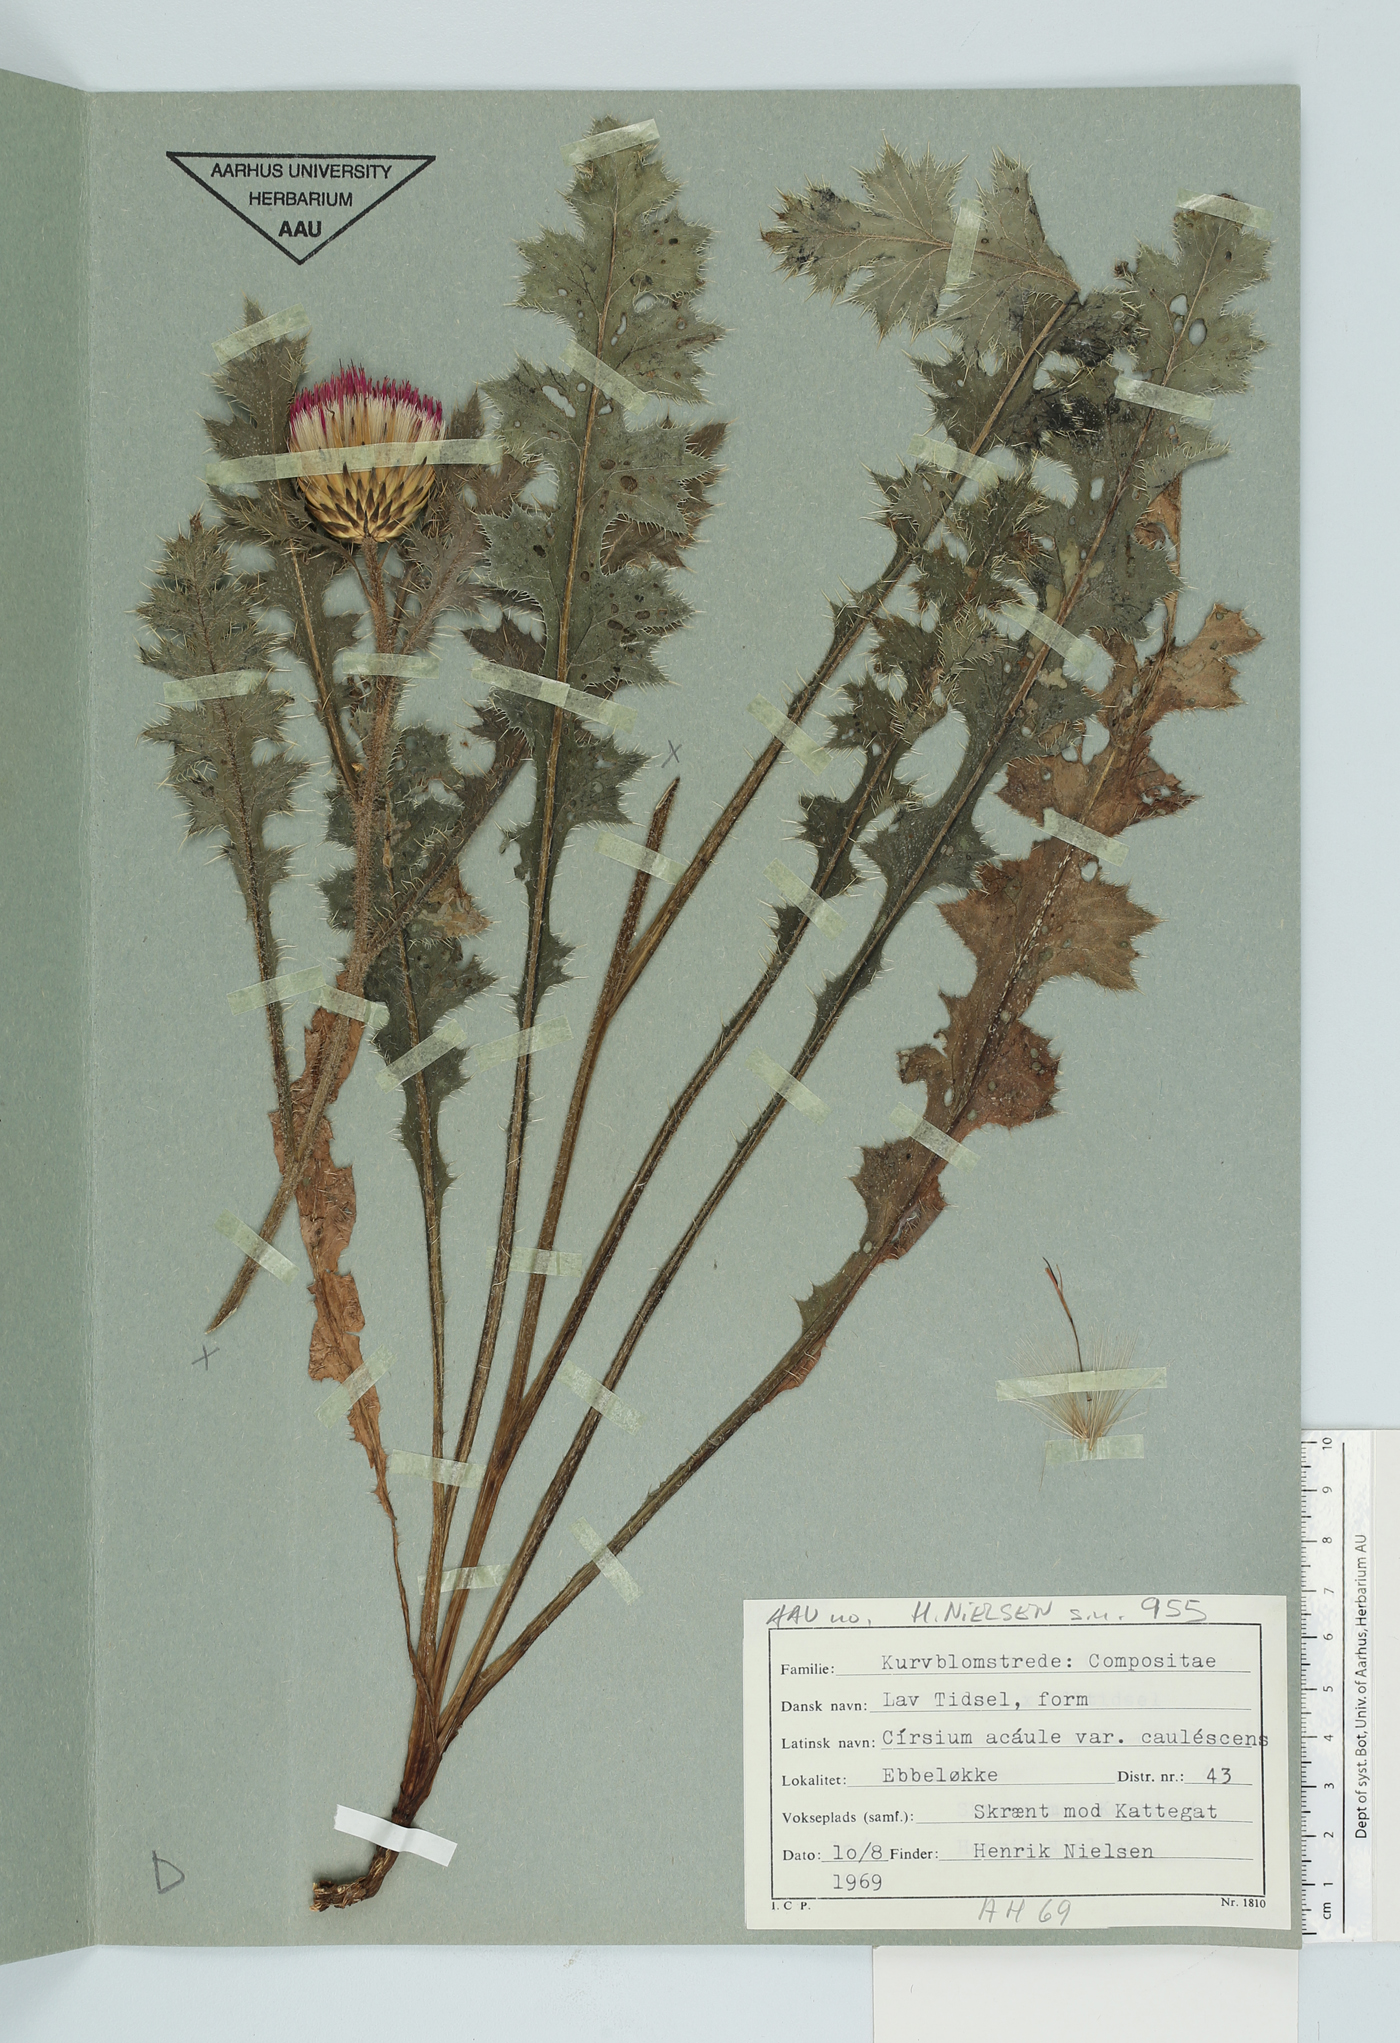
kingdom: Plantae
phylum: Tracheophyta
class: Magnoliopsida
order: Asterales
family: Asteraceae
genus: Cirsium
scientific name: Cirsium acaule
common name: Dwarf thistle
